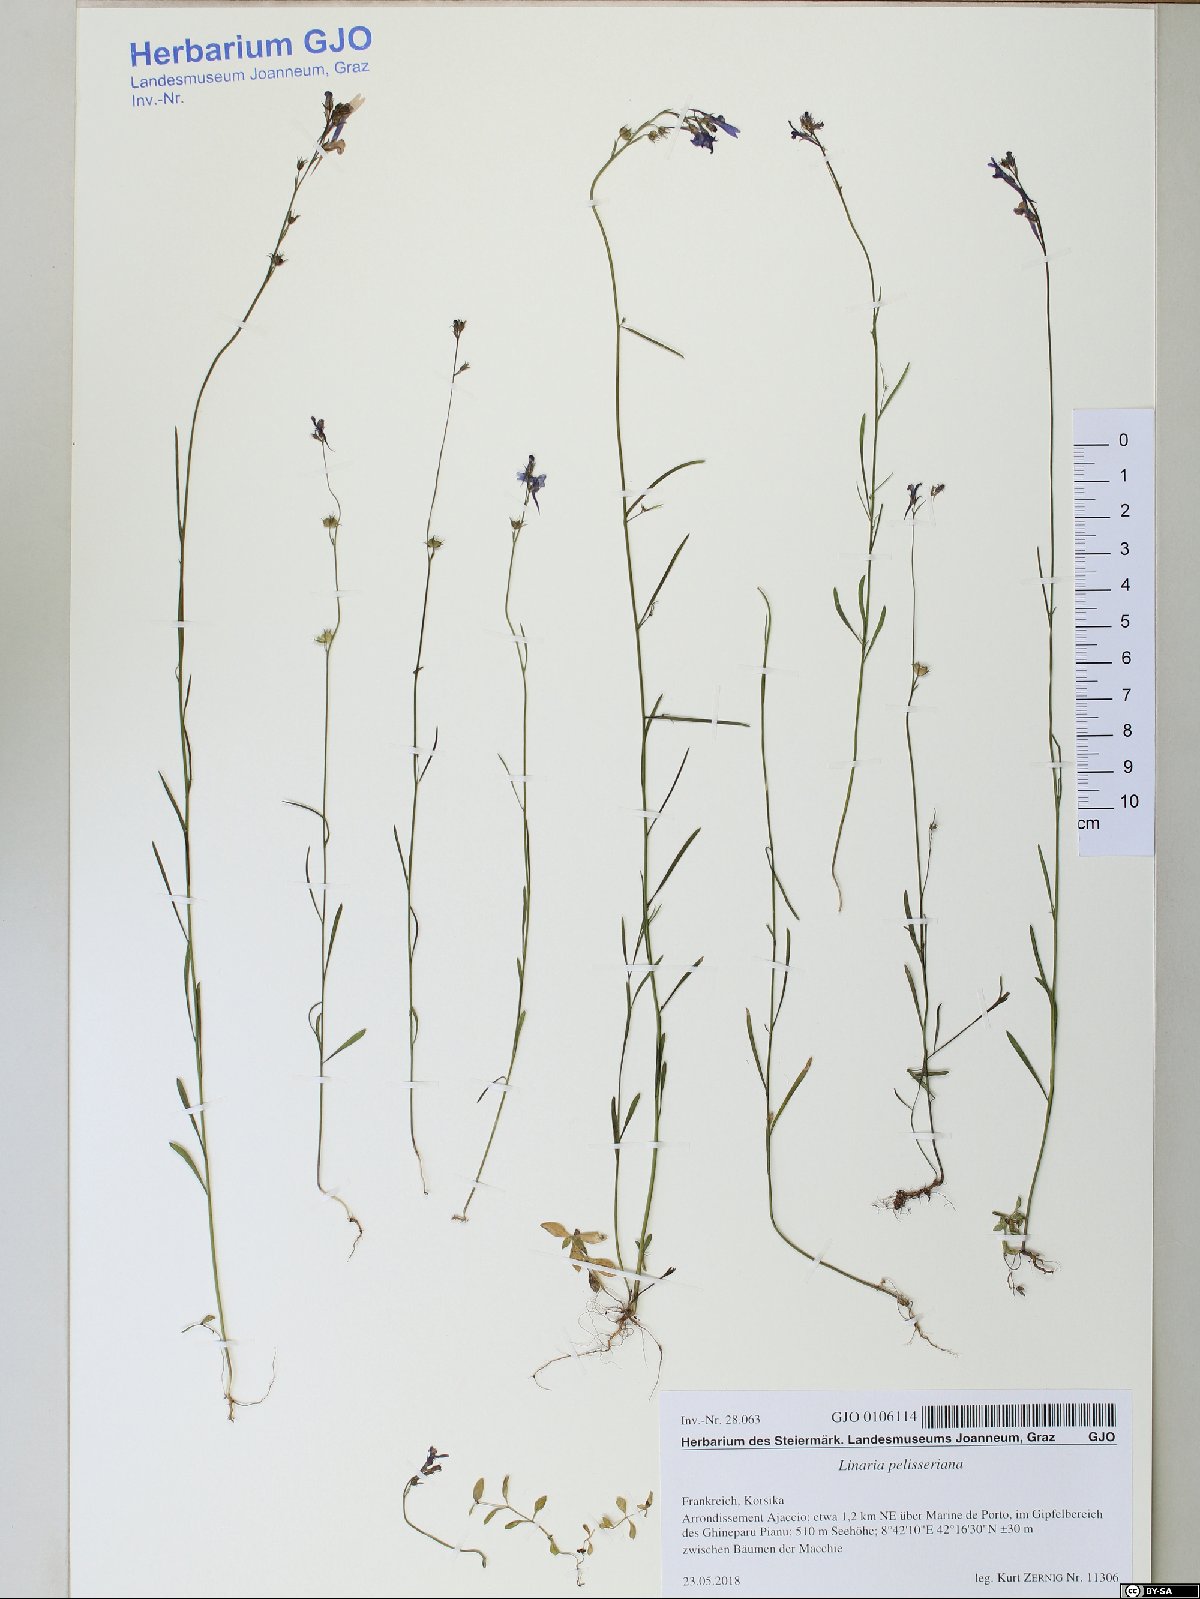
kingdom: Plantae
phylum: Tracheophyta
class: Magnoliopsida
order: Lamiales
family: Plantaginaceae
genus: Linaria
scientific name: Linaria pelisseriana
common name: Jersey toadflax
